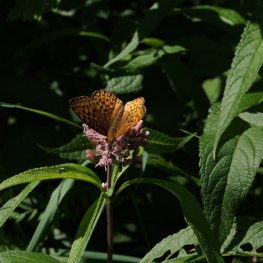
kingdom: Animalia
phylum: Arthropoda
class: Insecta
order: Lepidoptera
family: Nymphalidae
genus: Speyeria
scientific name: Speyeria atlantis
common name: Atlantis Fritillary
